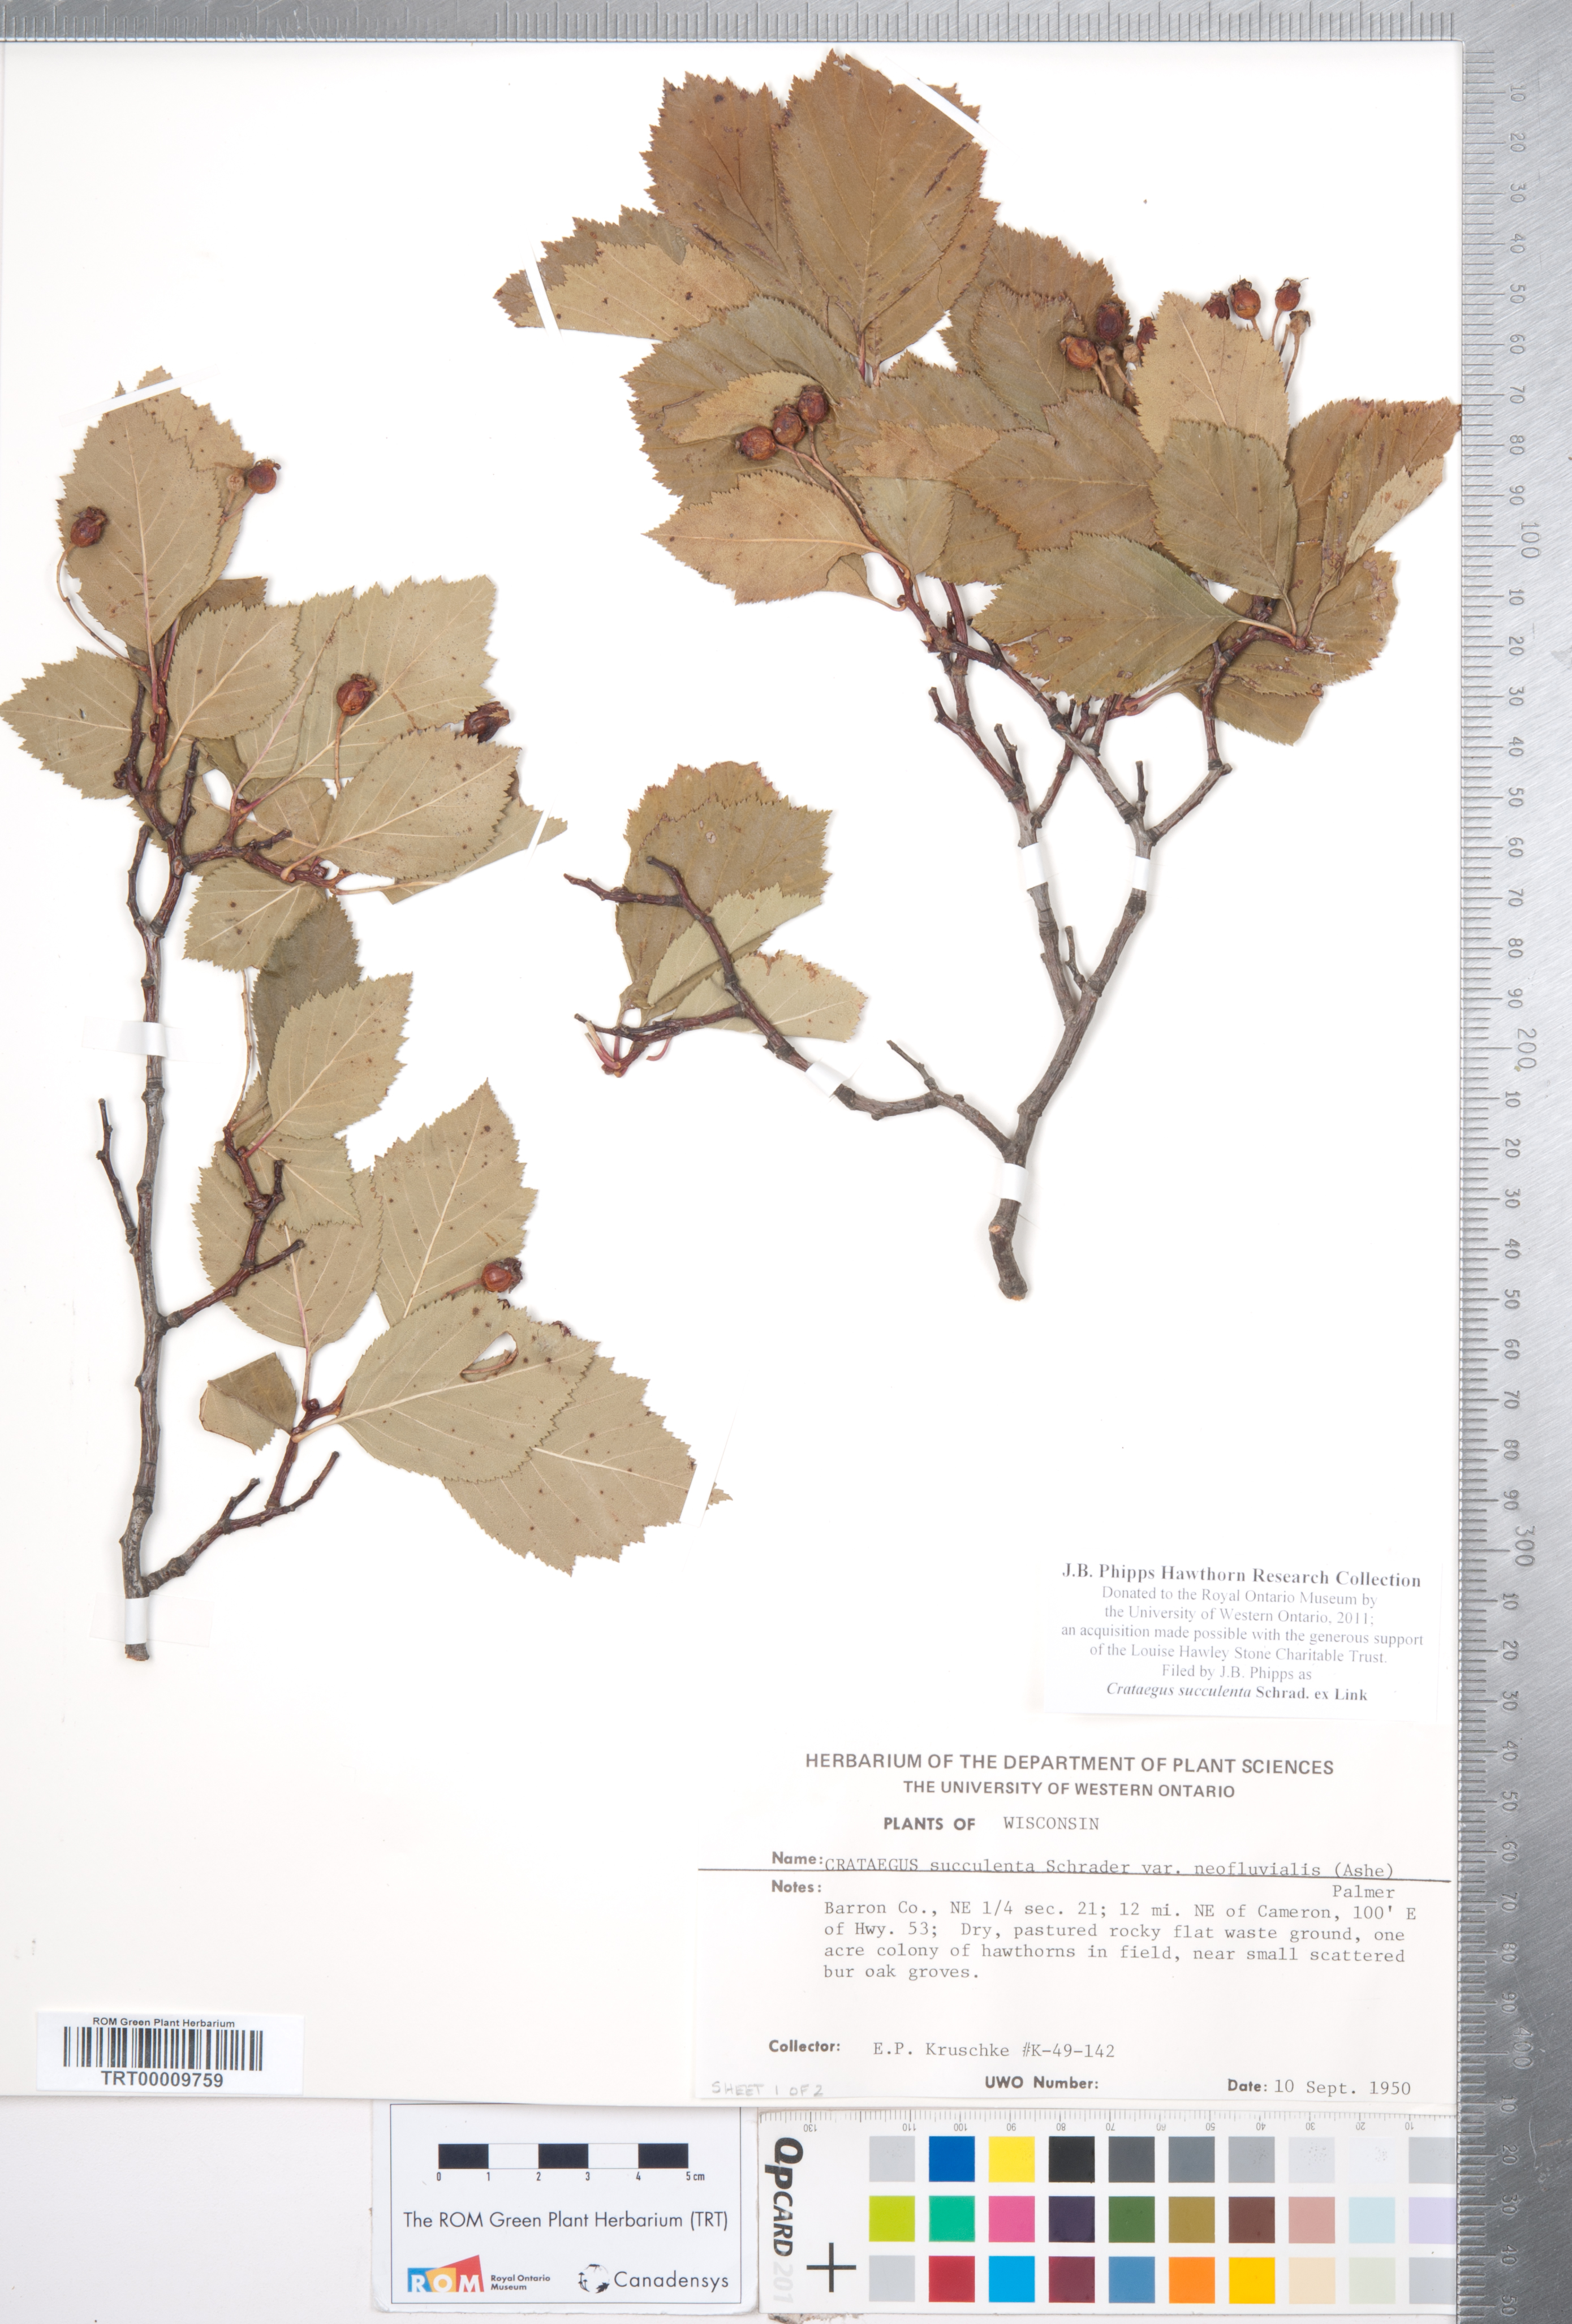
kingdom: Plantae
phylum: Tracheophyta
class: Magnoliopsida
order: Rosales
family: Rosaceae
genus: Crataegus
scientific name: Crataegus succulenta
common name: Fleshy hawthorn
